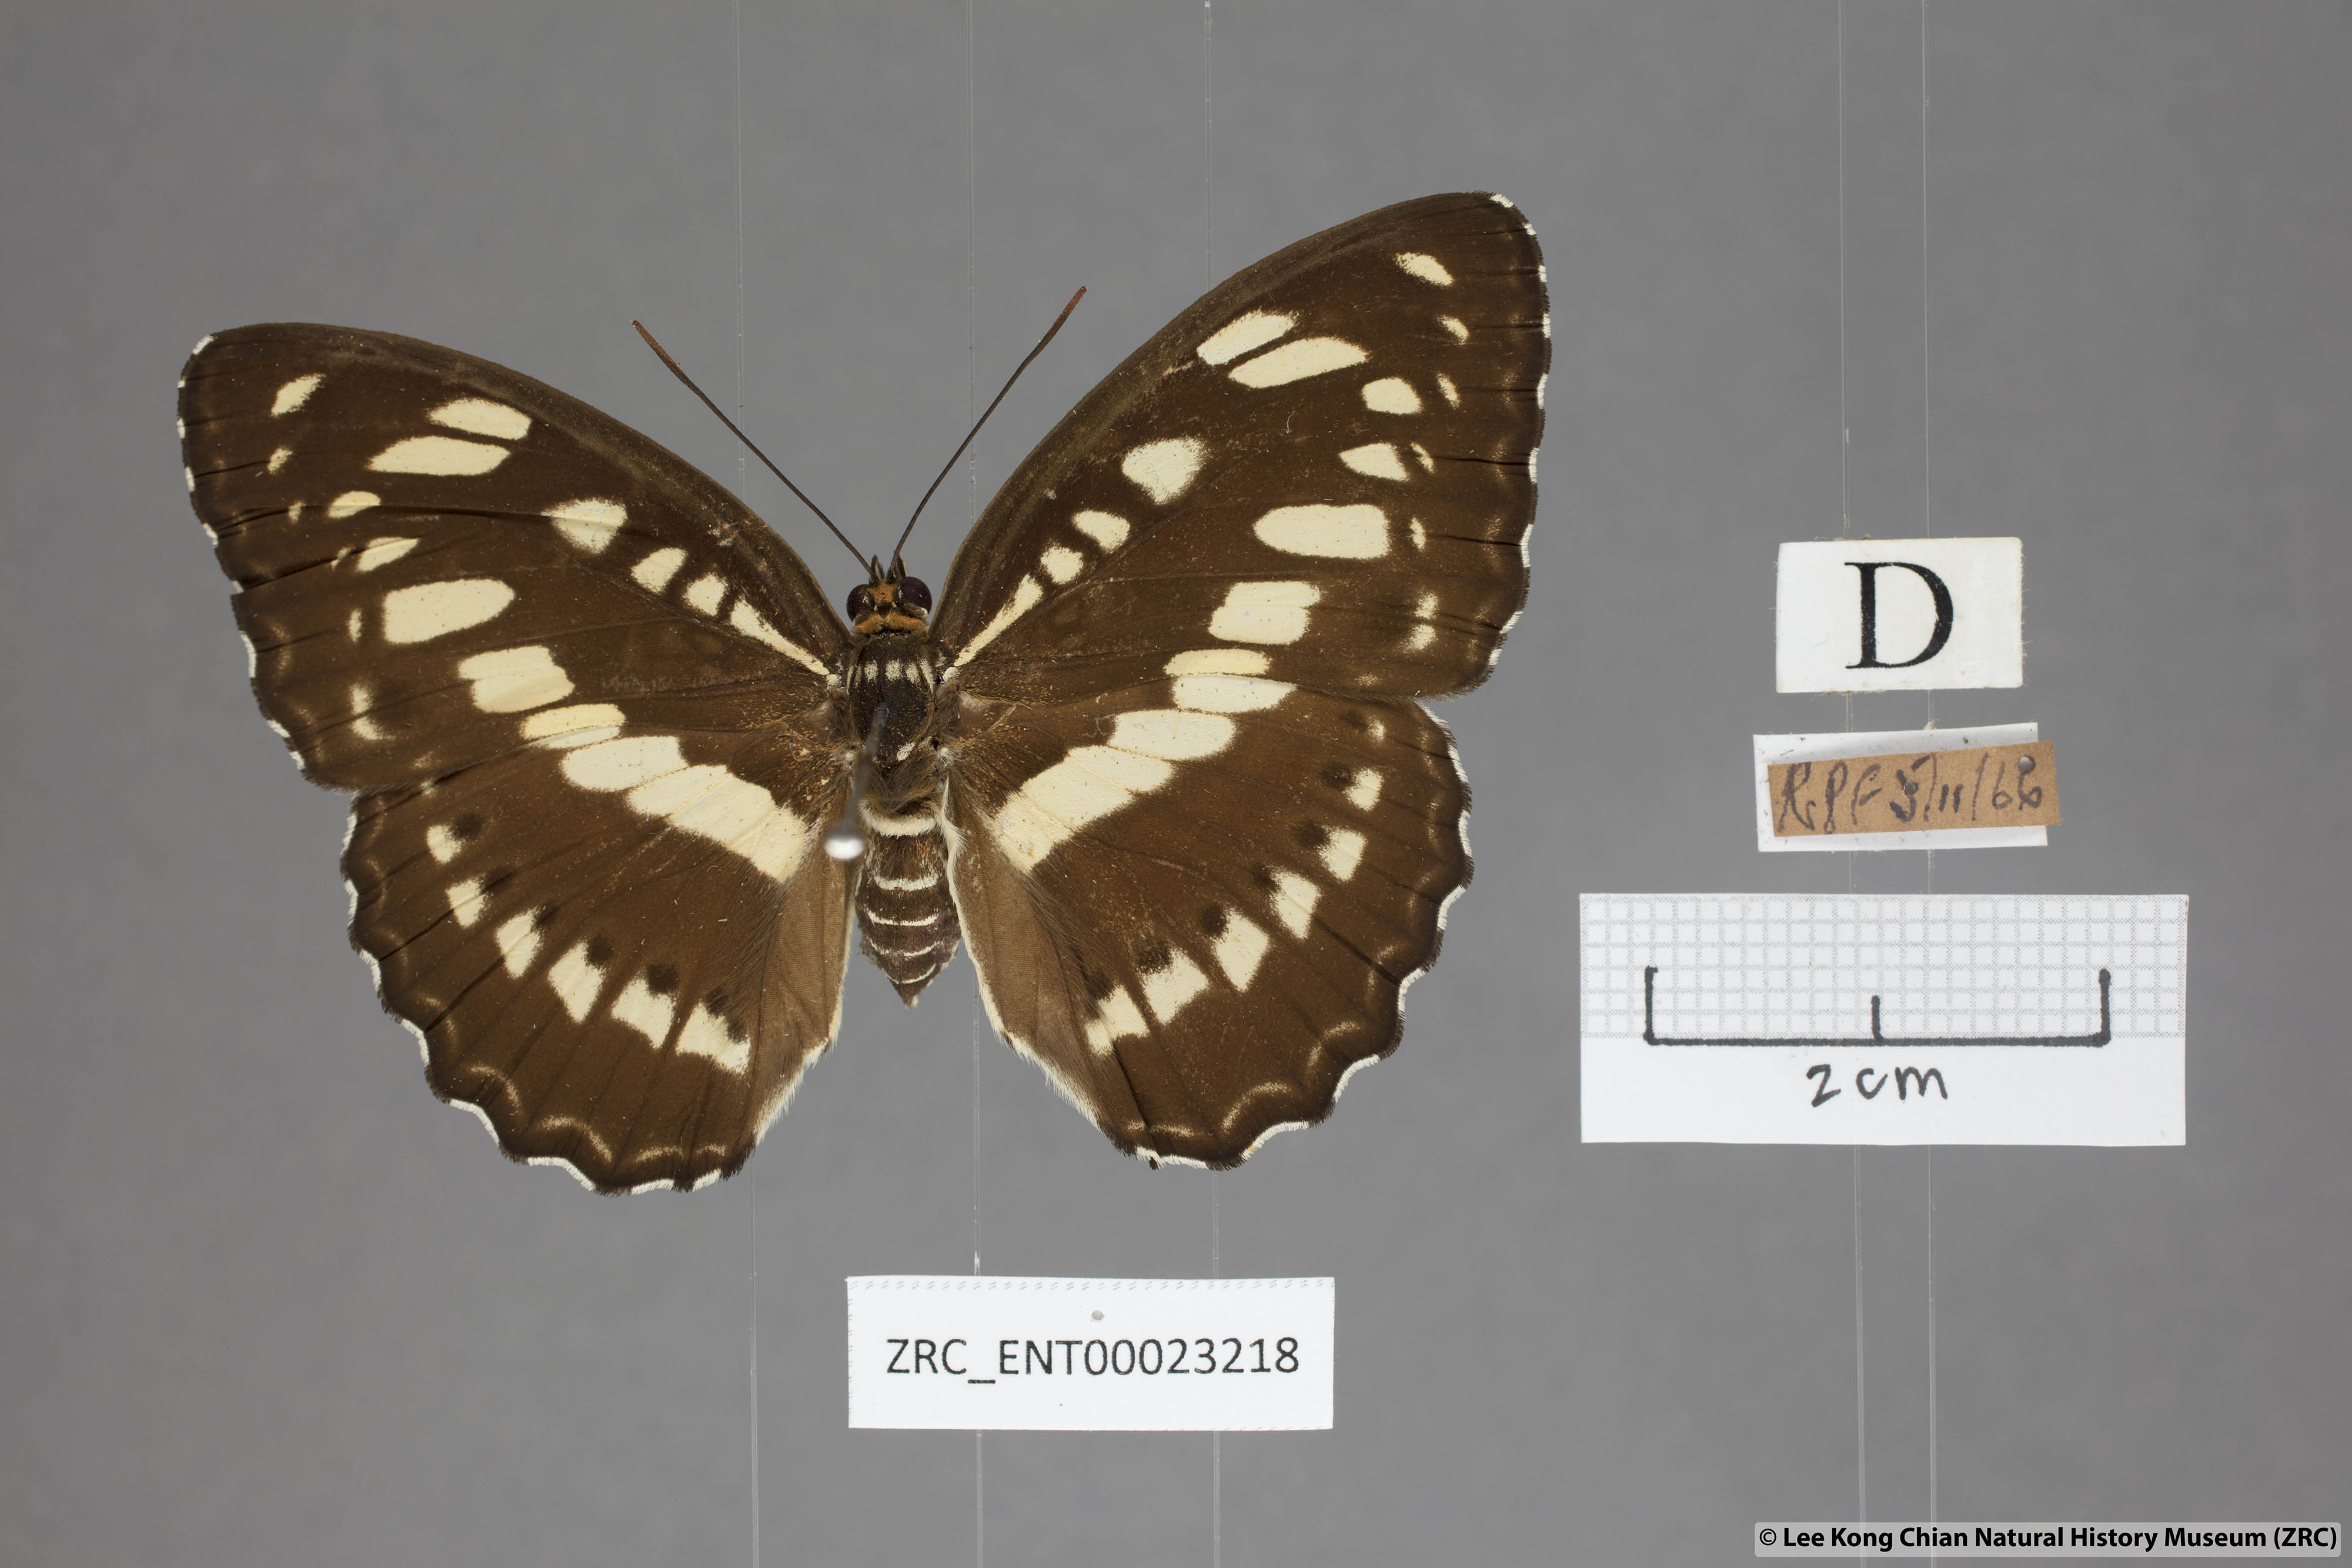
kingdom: Animalia
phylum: Arthropoda
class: Insecta
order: Lepidoptera
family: Nymphalidae
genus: Parathyma
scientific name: Parathyma perius
